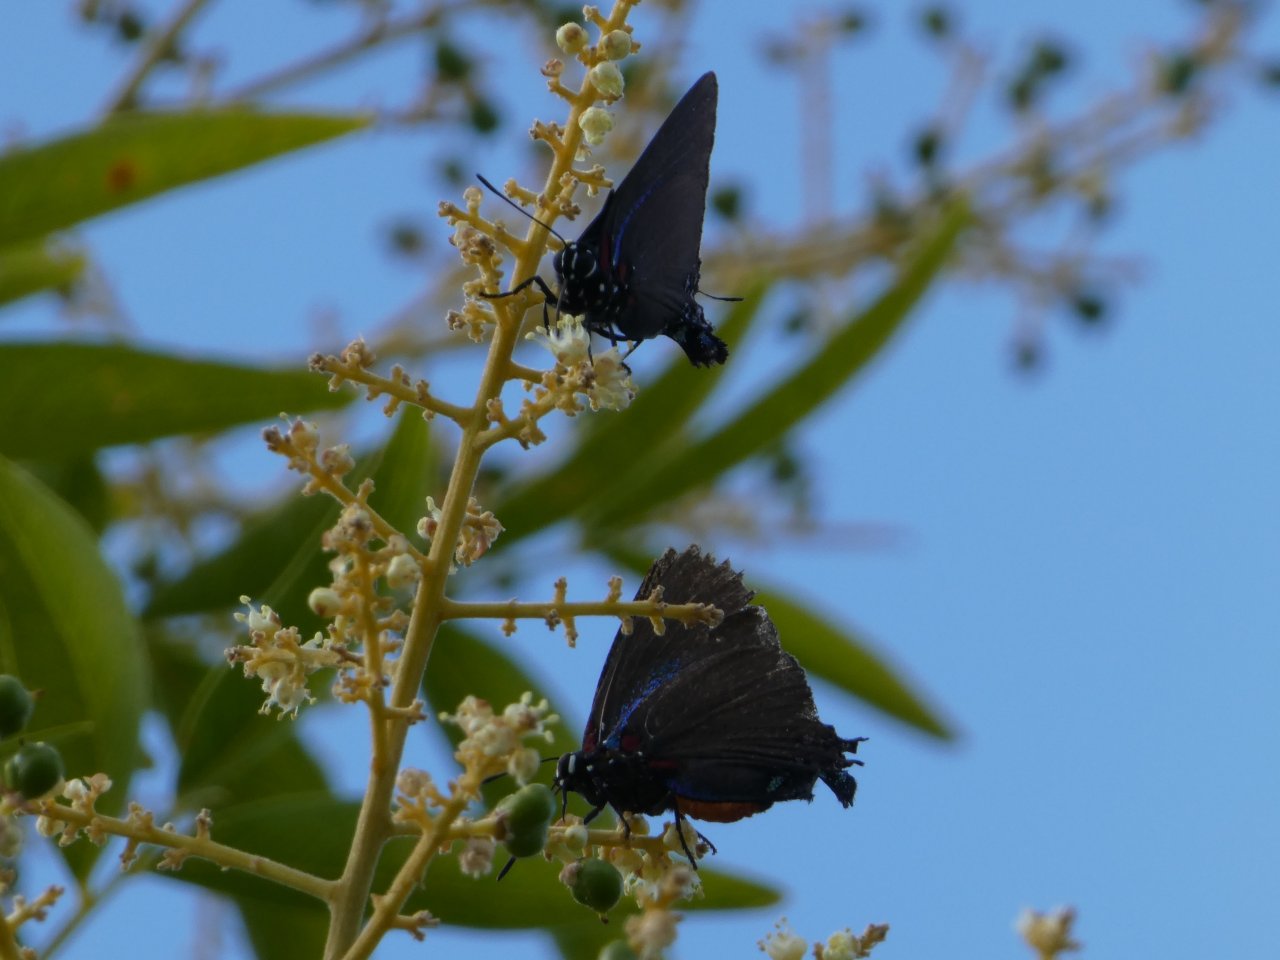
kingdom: Animalia
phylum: Arthropoda
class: Insecta
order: Lepidoptera
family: Lycaenidae
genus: Atlides
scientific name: Atlides halesus
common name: Great Purple Hairstreak
